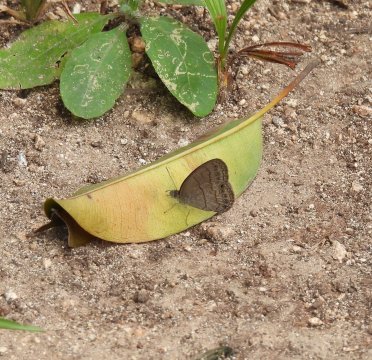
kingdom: Animalia
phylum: Arthropoda
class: Insecta
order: Lepidoptera
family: Nymphalidae
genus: Hermeuptychia
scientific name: Hermeuptychia hermes
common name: Carolina Satyr
